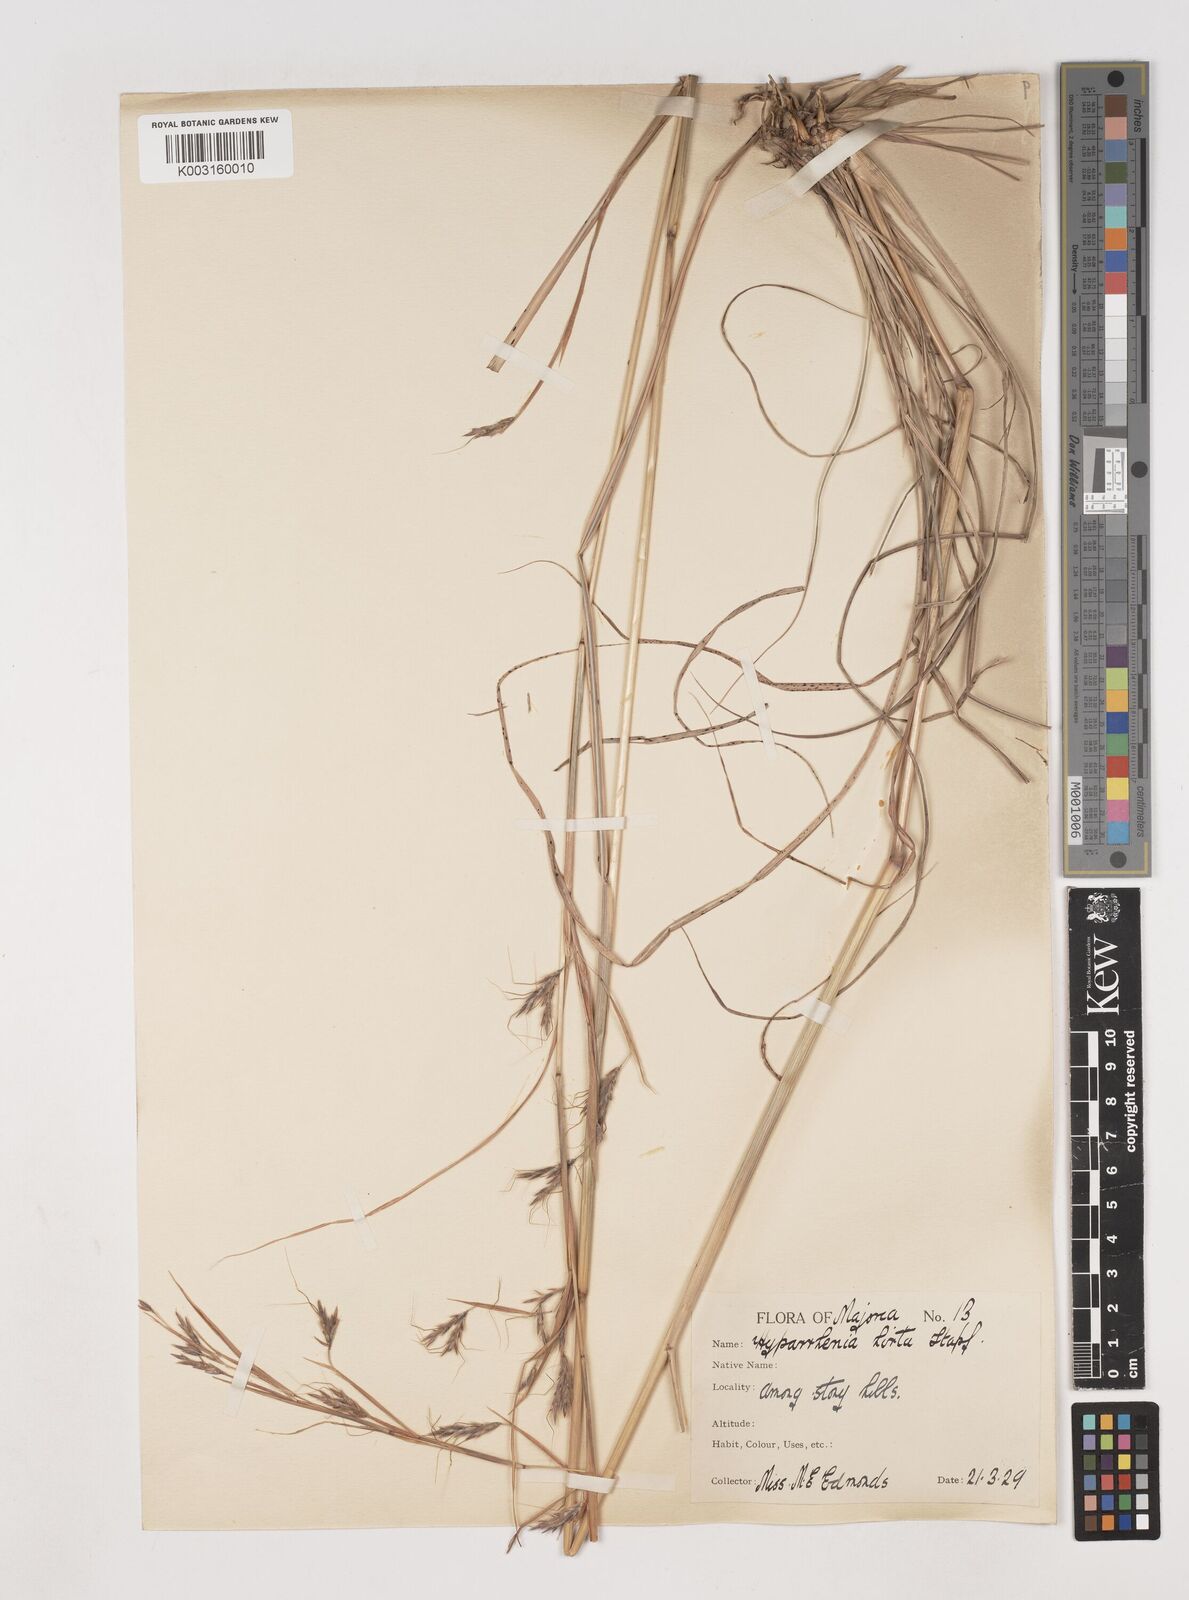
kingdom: Plantae
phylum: Tracheophyta
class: Liliopsida
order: Poales
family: Poaceae
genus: Hyparrhenia
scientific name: Hyparrhenia hirta
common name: Thatching grass
